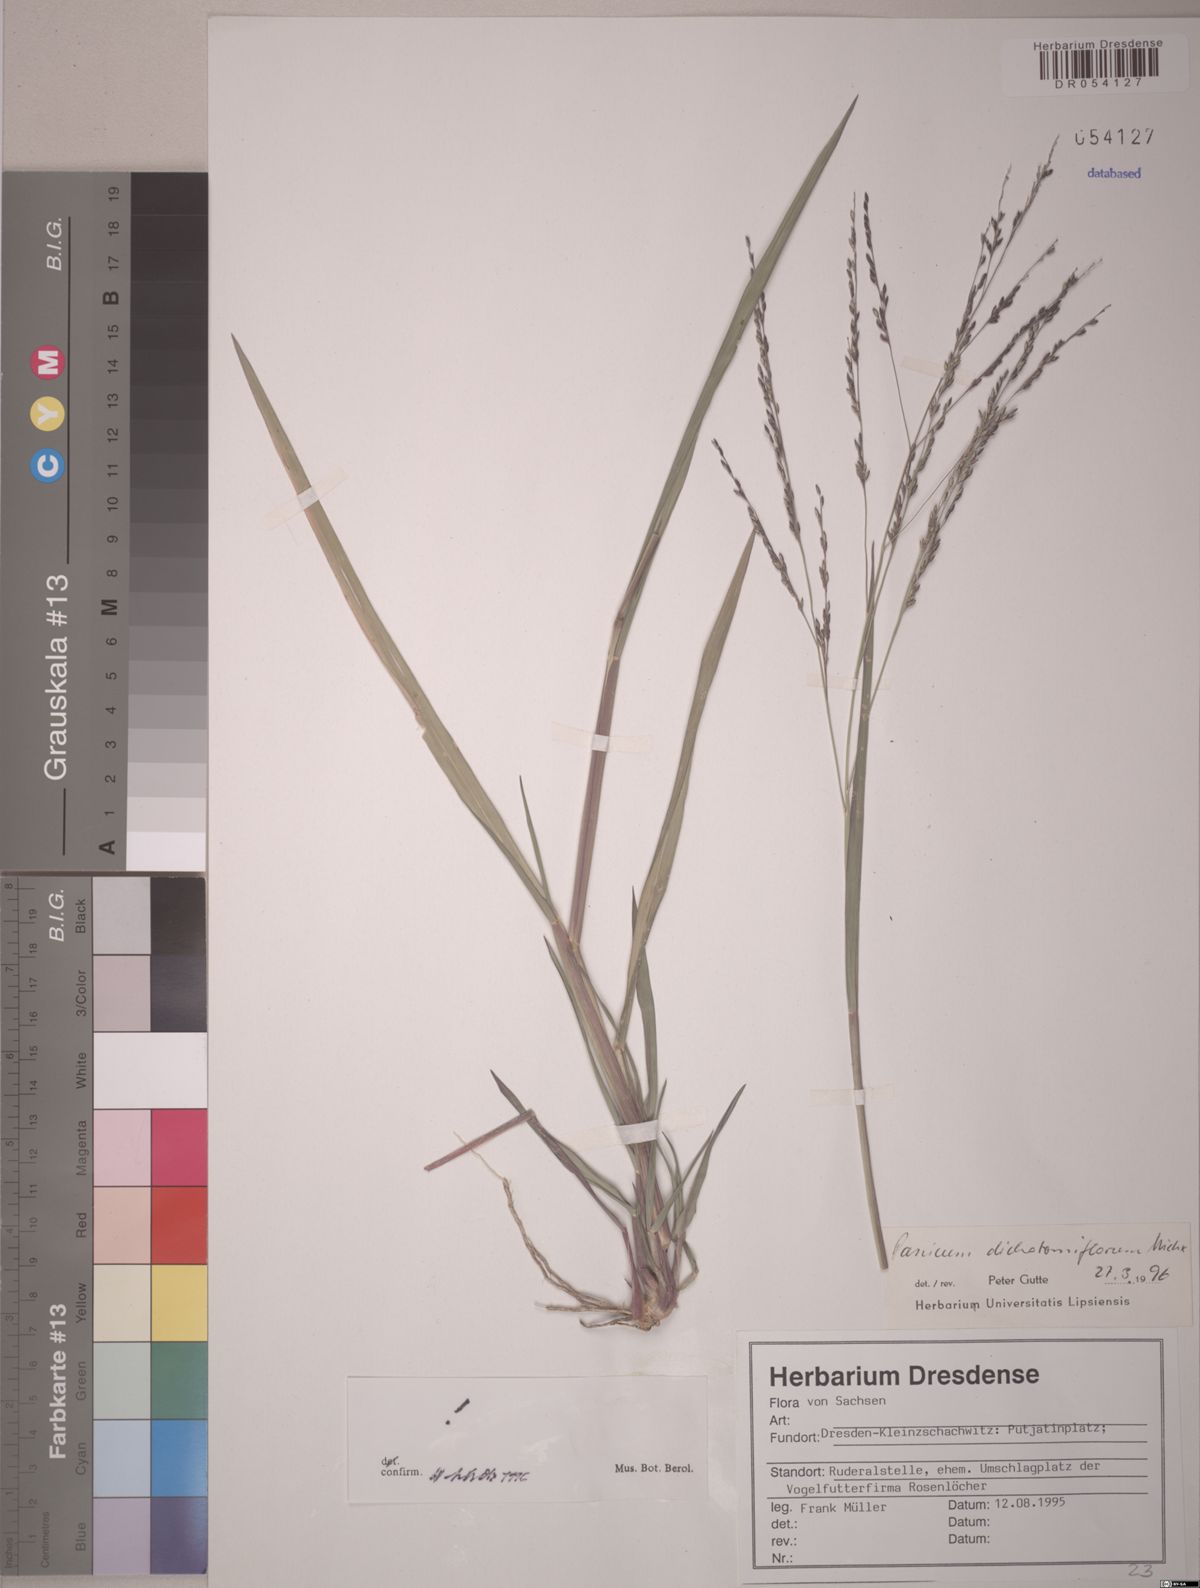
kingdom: Plantae
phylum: Tracheophyta
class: Liliopsida
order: Poales
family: Poaceae
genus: Panicum
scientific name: Panicum dichotomiflorum
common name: Autumn millet
